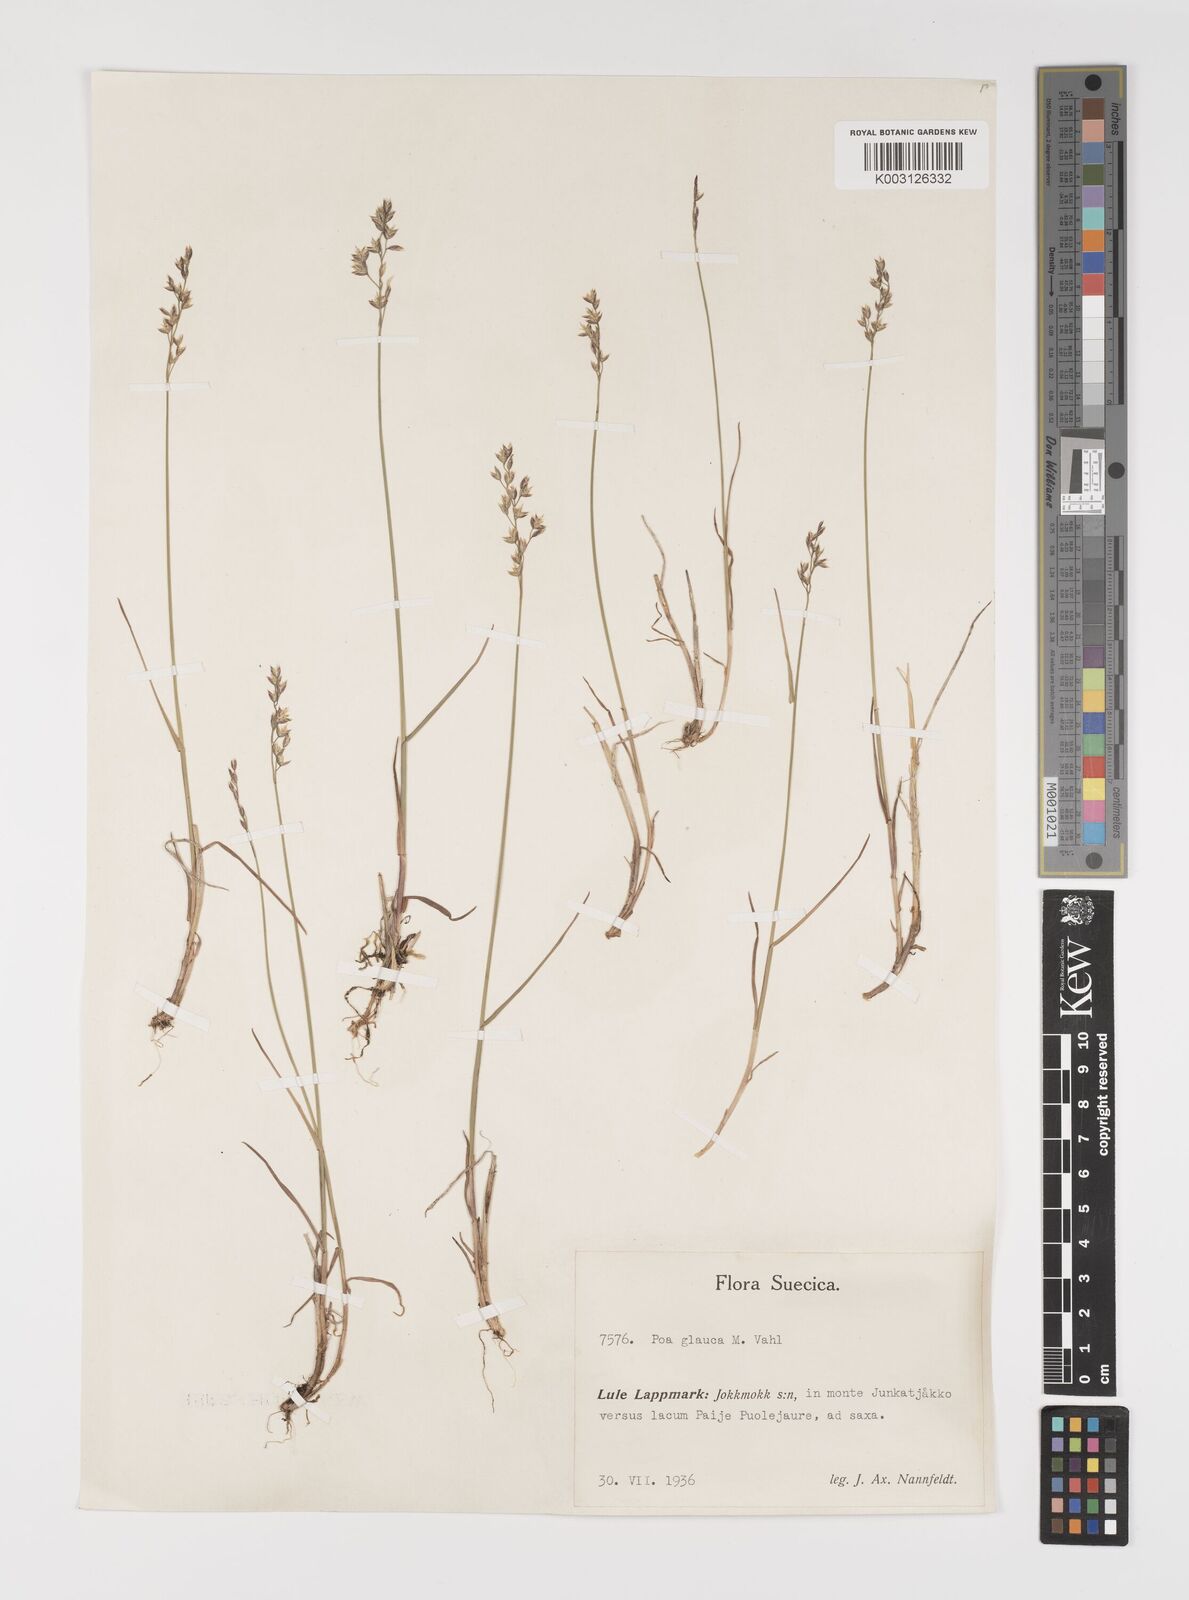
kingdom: Plantae
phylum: Tracheophyta
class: Liliopsida
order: Poales
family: Poaceae
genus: Poa
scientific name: Poa glauca
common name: Glaucous bluegrass
